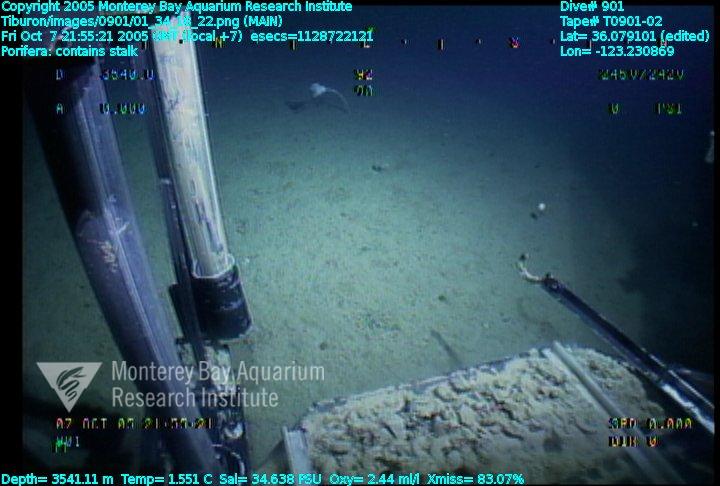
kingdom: Animalia
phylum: Porifera
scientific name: Porifera
